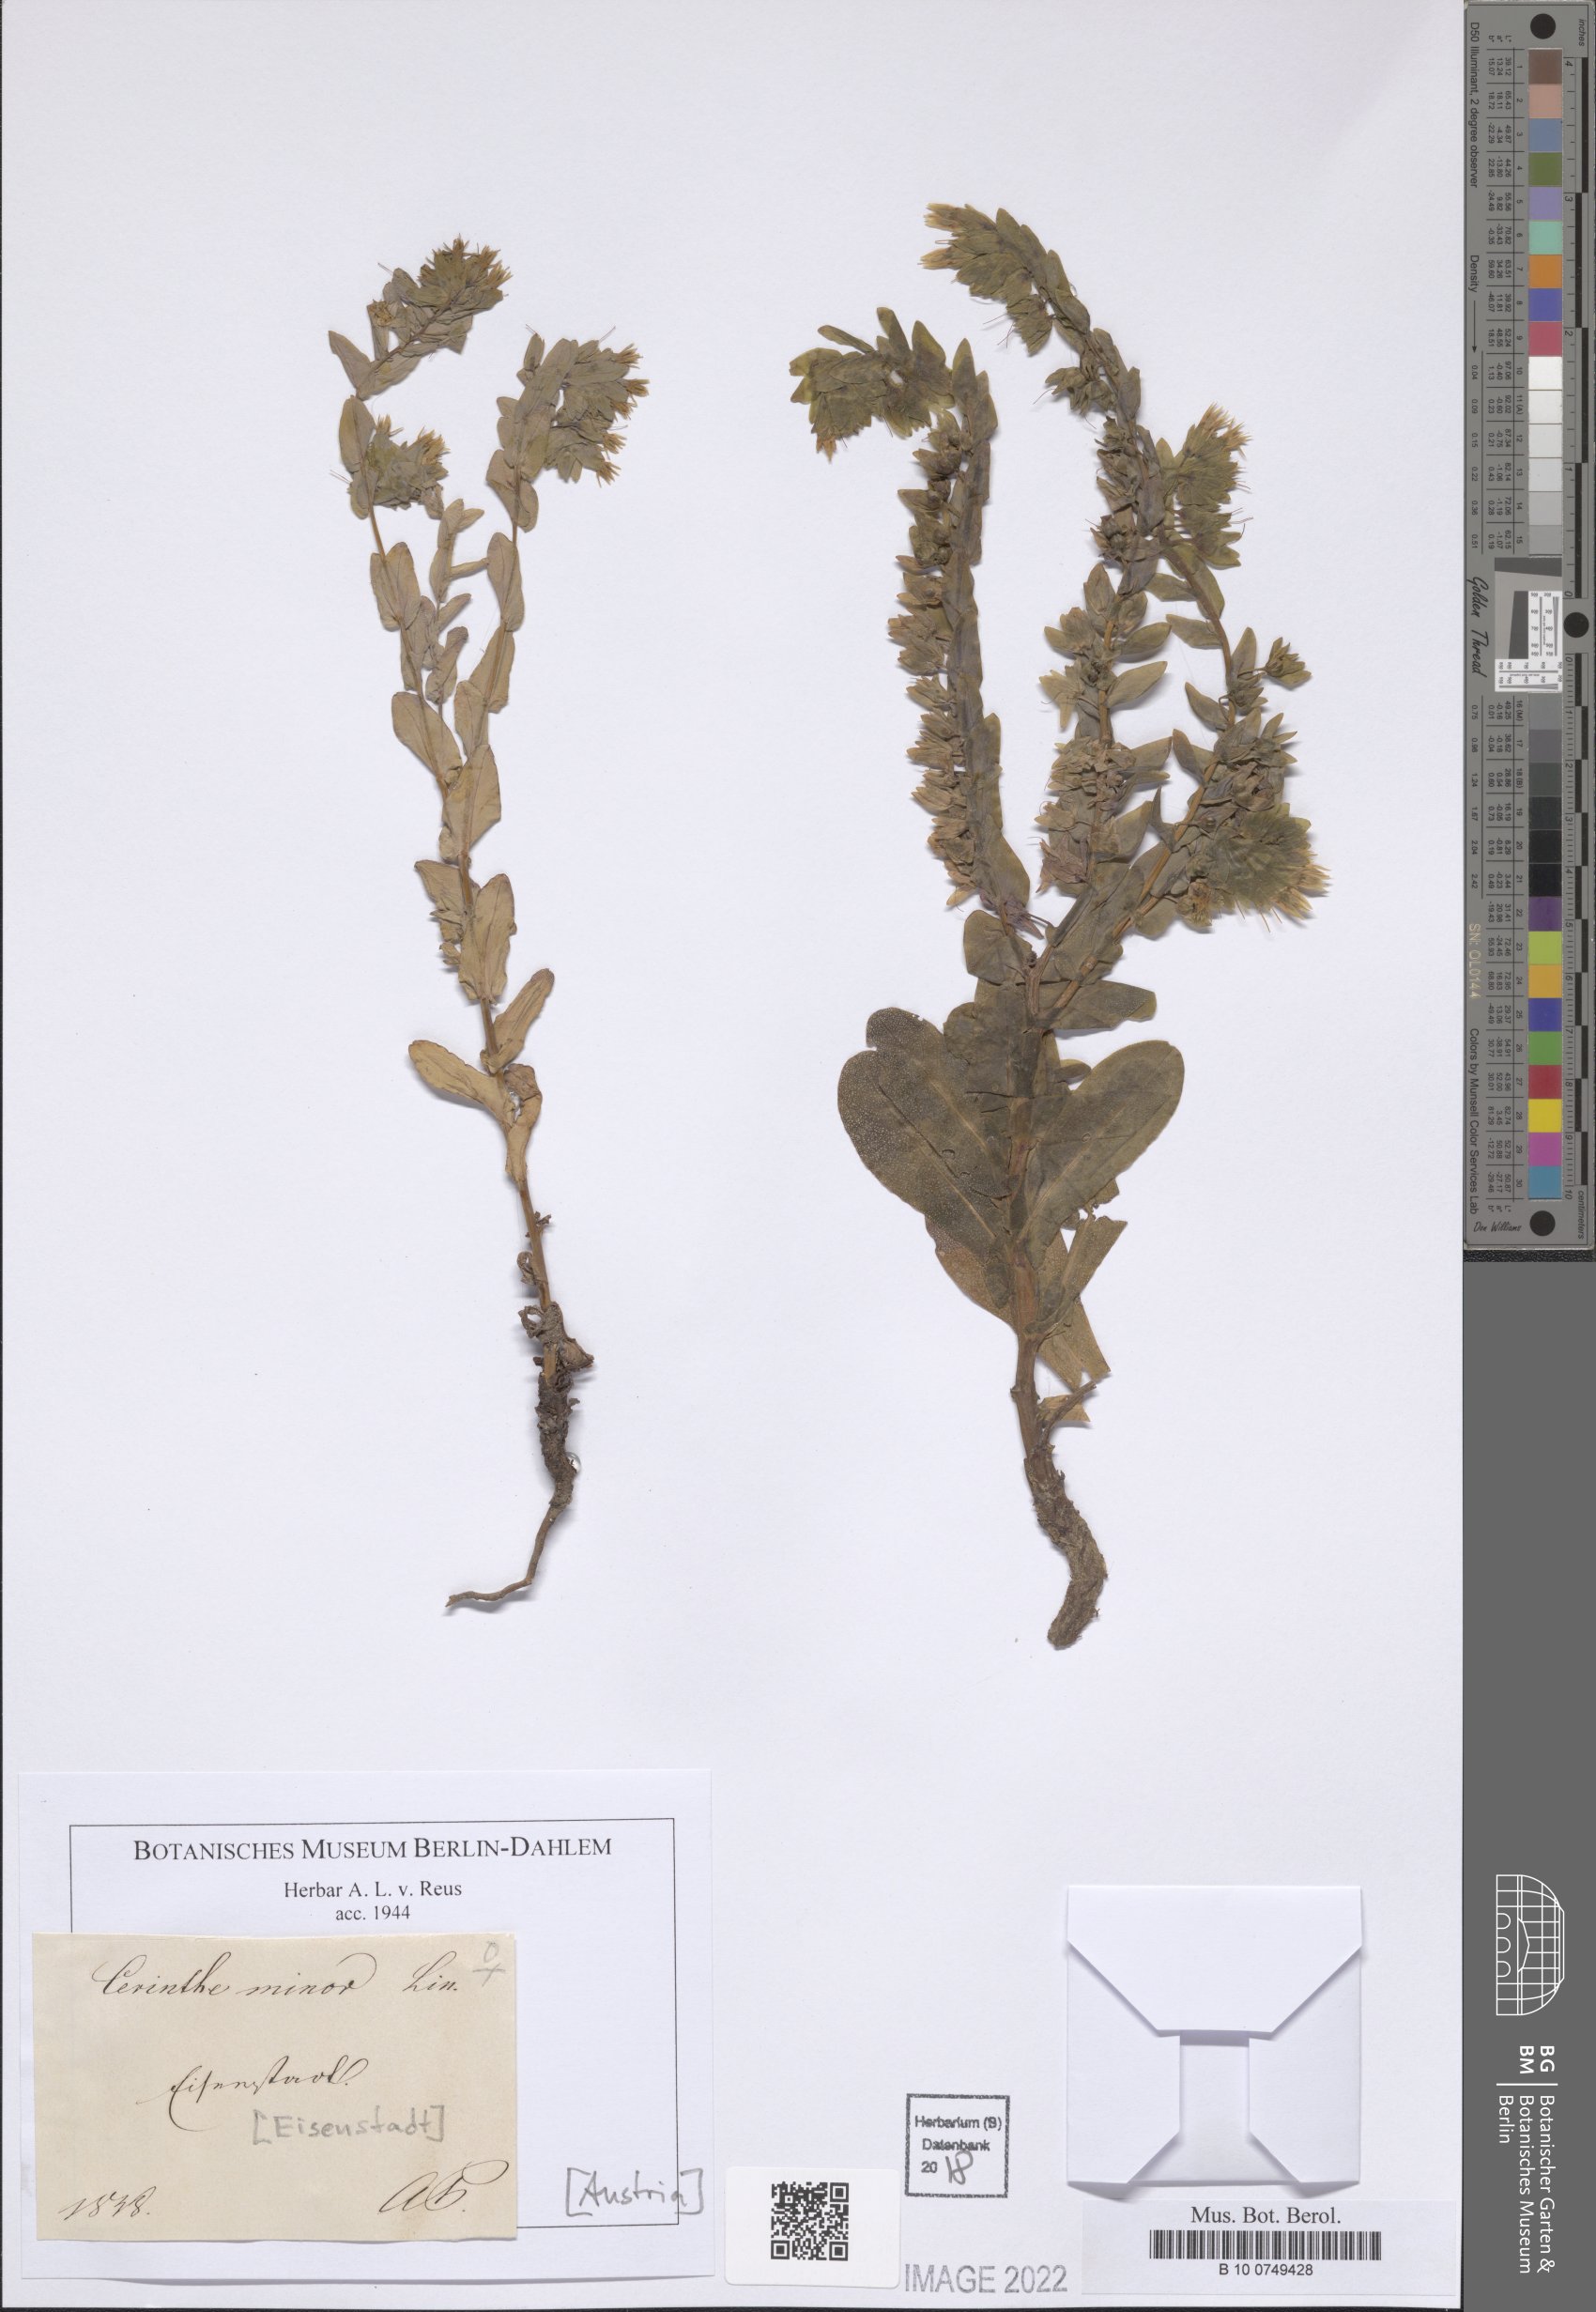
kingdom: Plantae
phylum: Tracheophyta
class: Magnoliopsida
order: Boraginales
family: Boraginaceae
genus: Cerinthe
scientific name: Cerinthe minor
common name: Lesser honeywort
